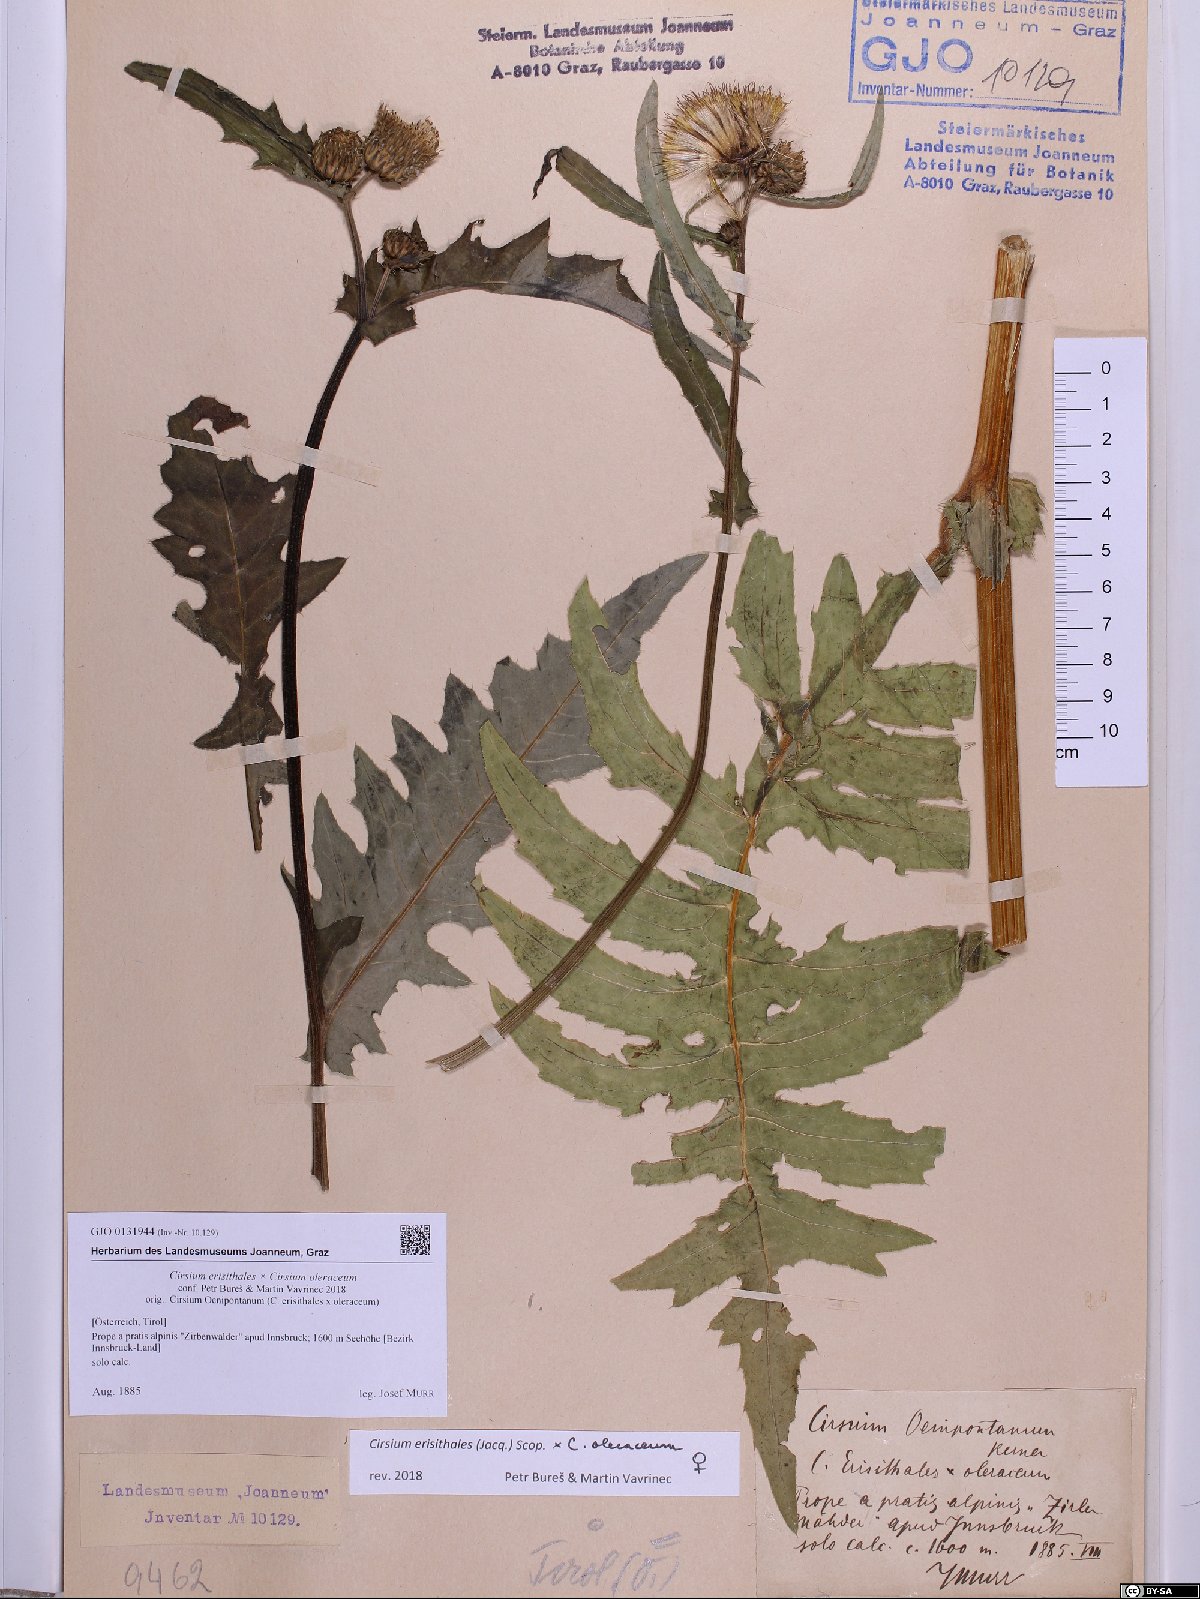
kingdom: Plantae
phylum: Tracheophyta
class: Magnoliopsida
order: Asterales
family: Asteraceae
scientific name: Asteraceae
